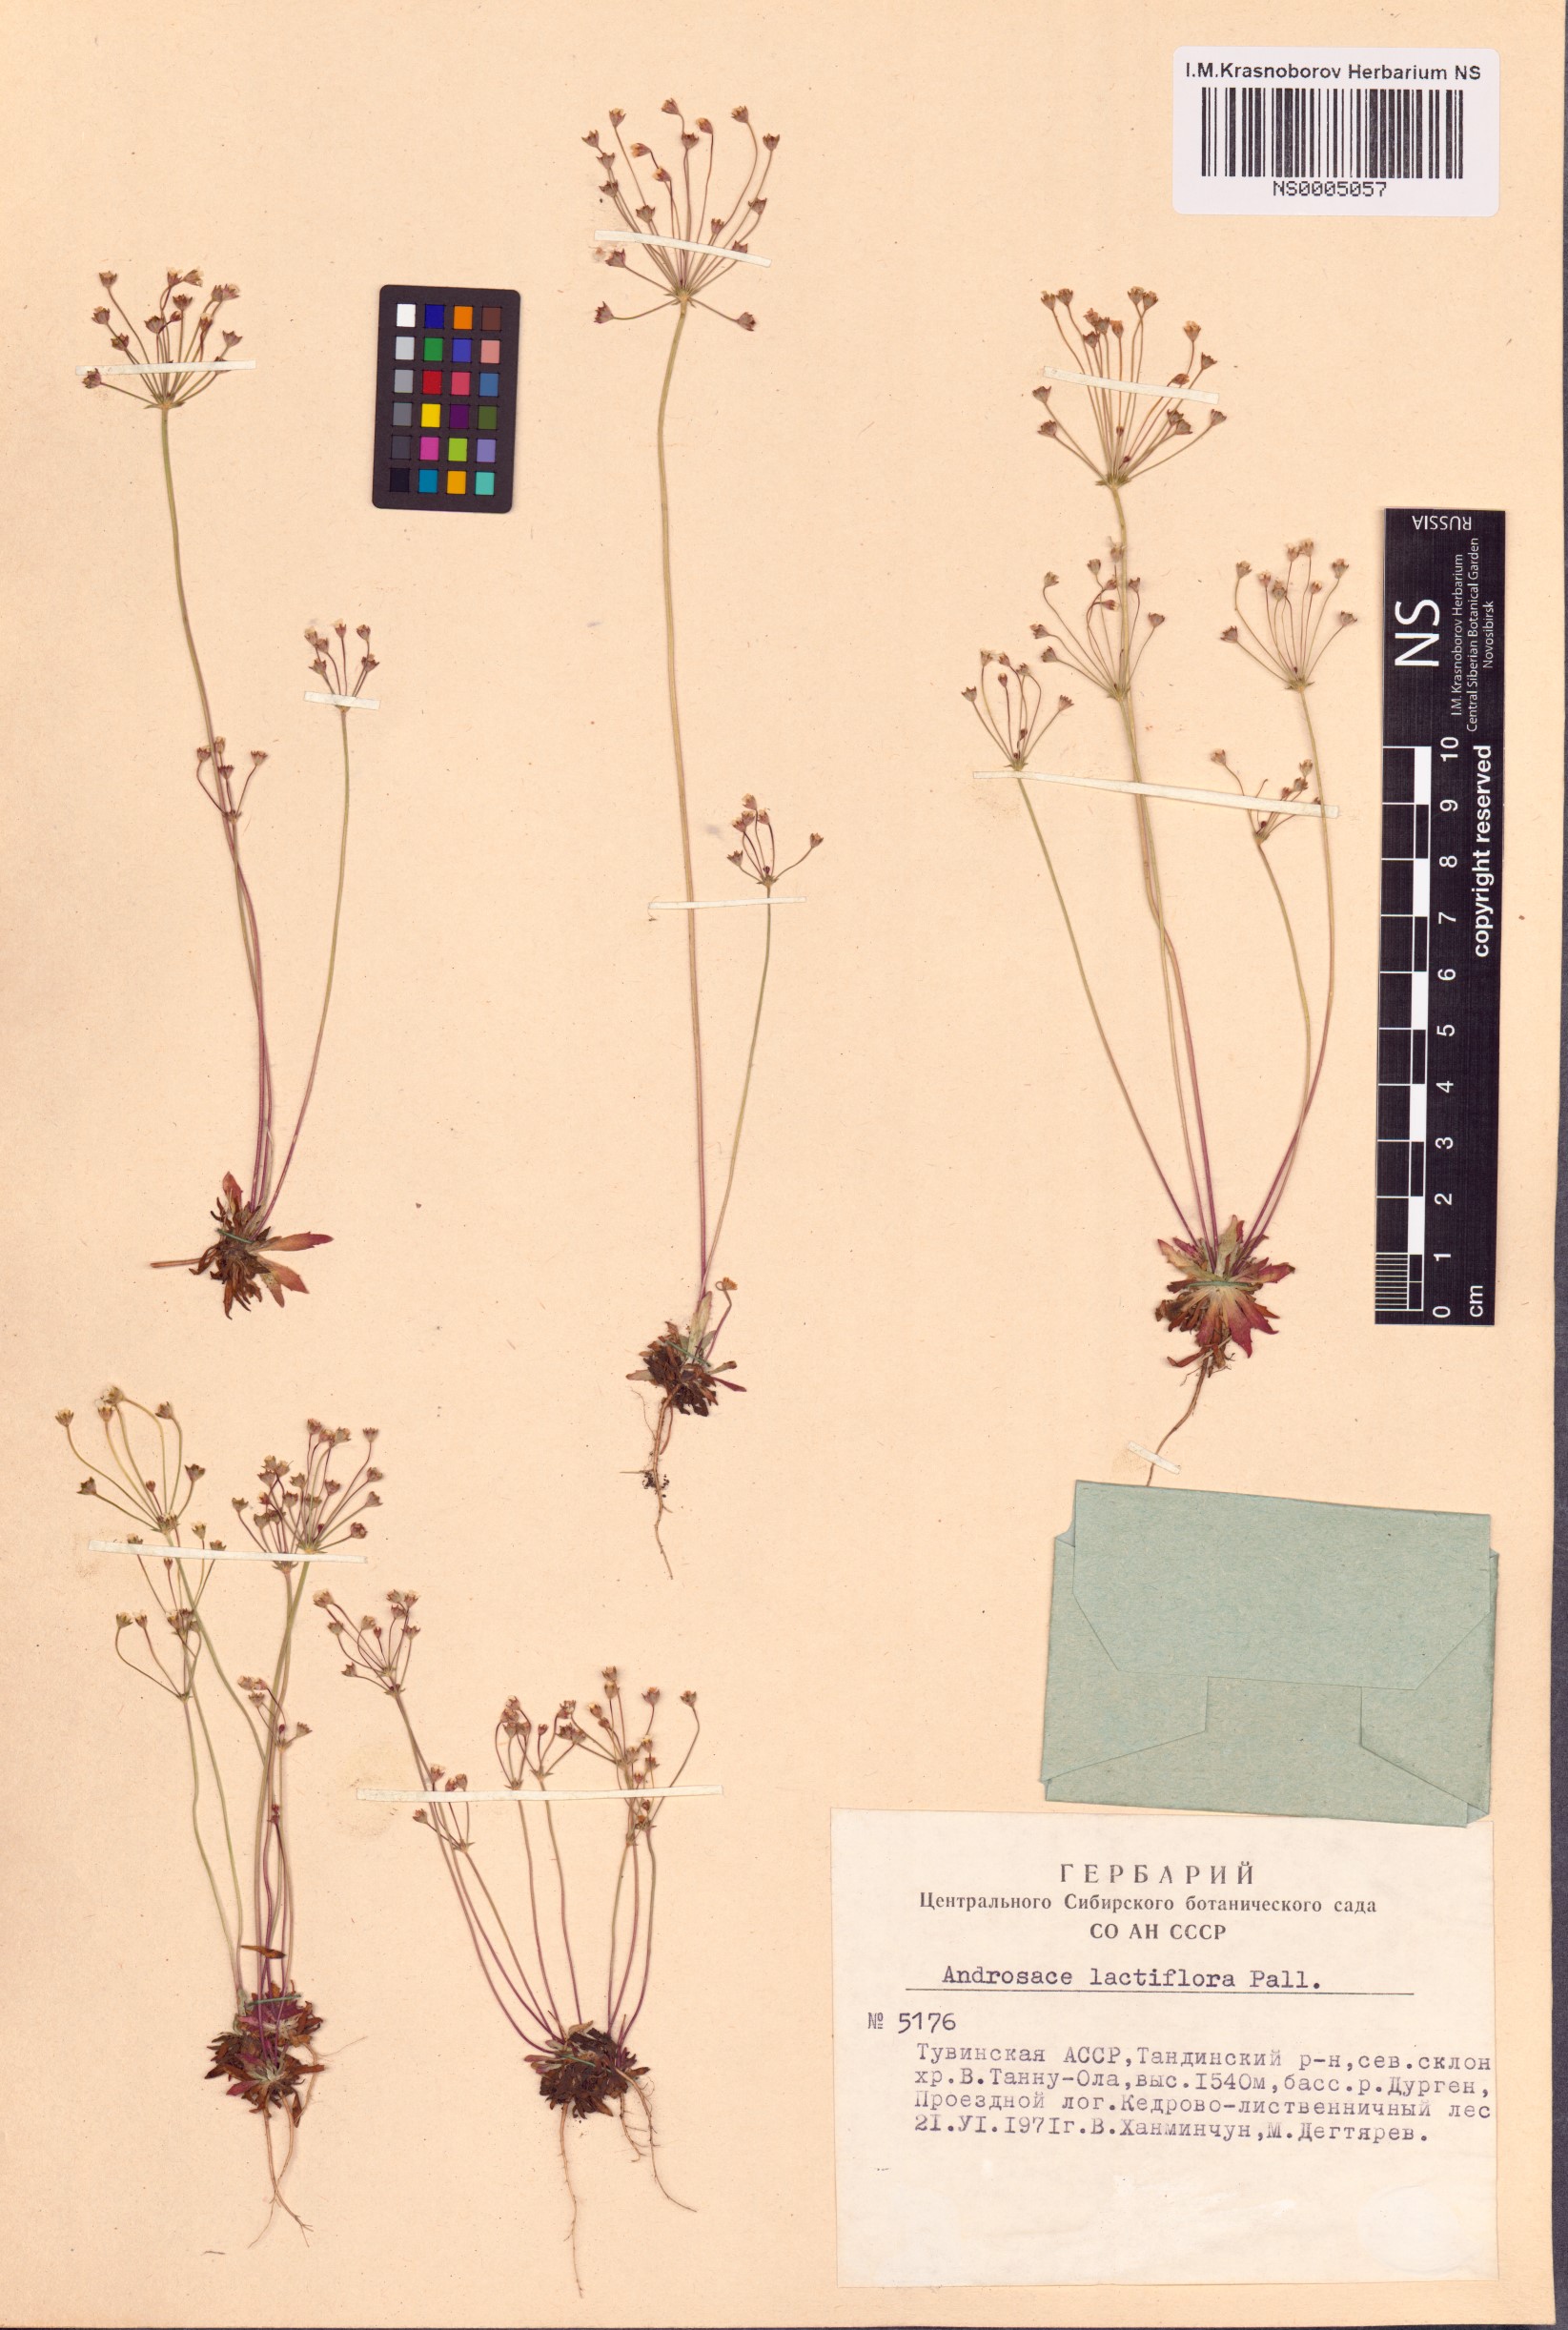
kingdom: Plantae
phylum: Tracheophyta
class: Magnoliopsida
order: Ericales
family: Primulaceae
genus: Androsace
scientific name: Androsace lactiflora
